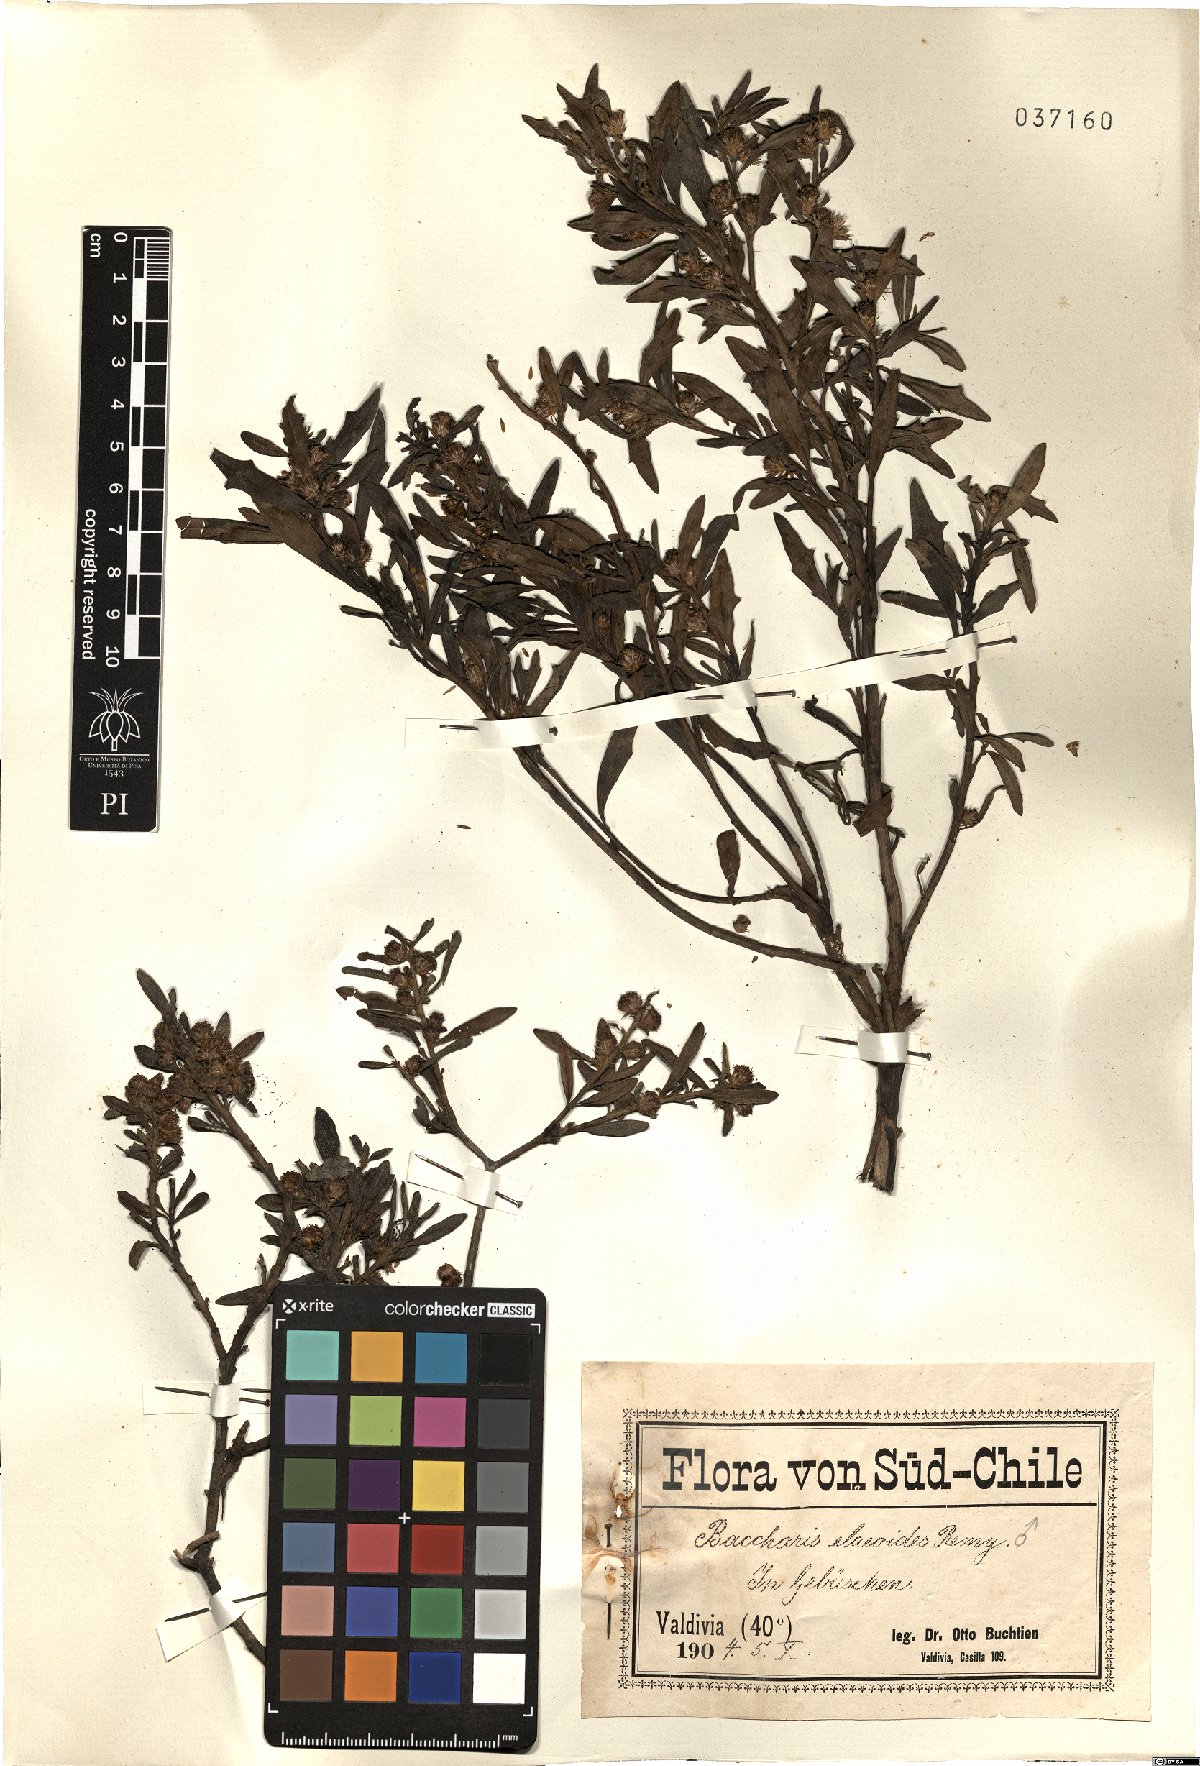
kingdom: Plantae
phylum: Tracheophyta
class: Magnoliopsida
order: Asterales
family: Asteraceae
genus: Baccharis
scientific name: Baccharis elaeoides
